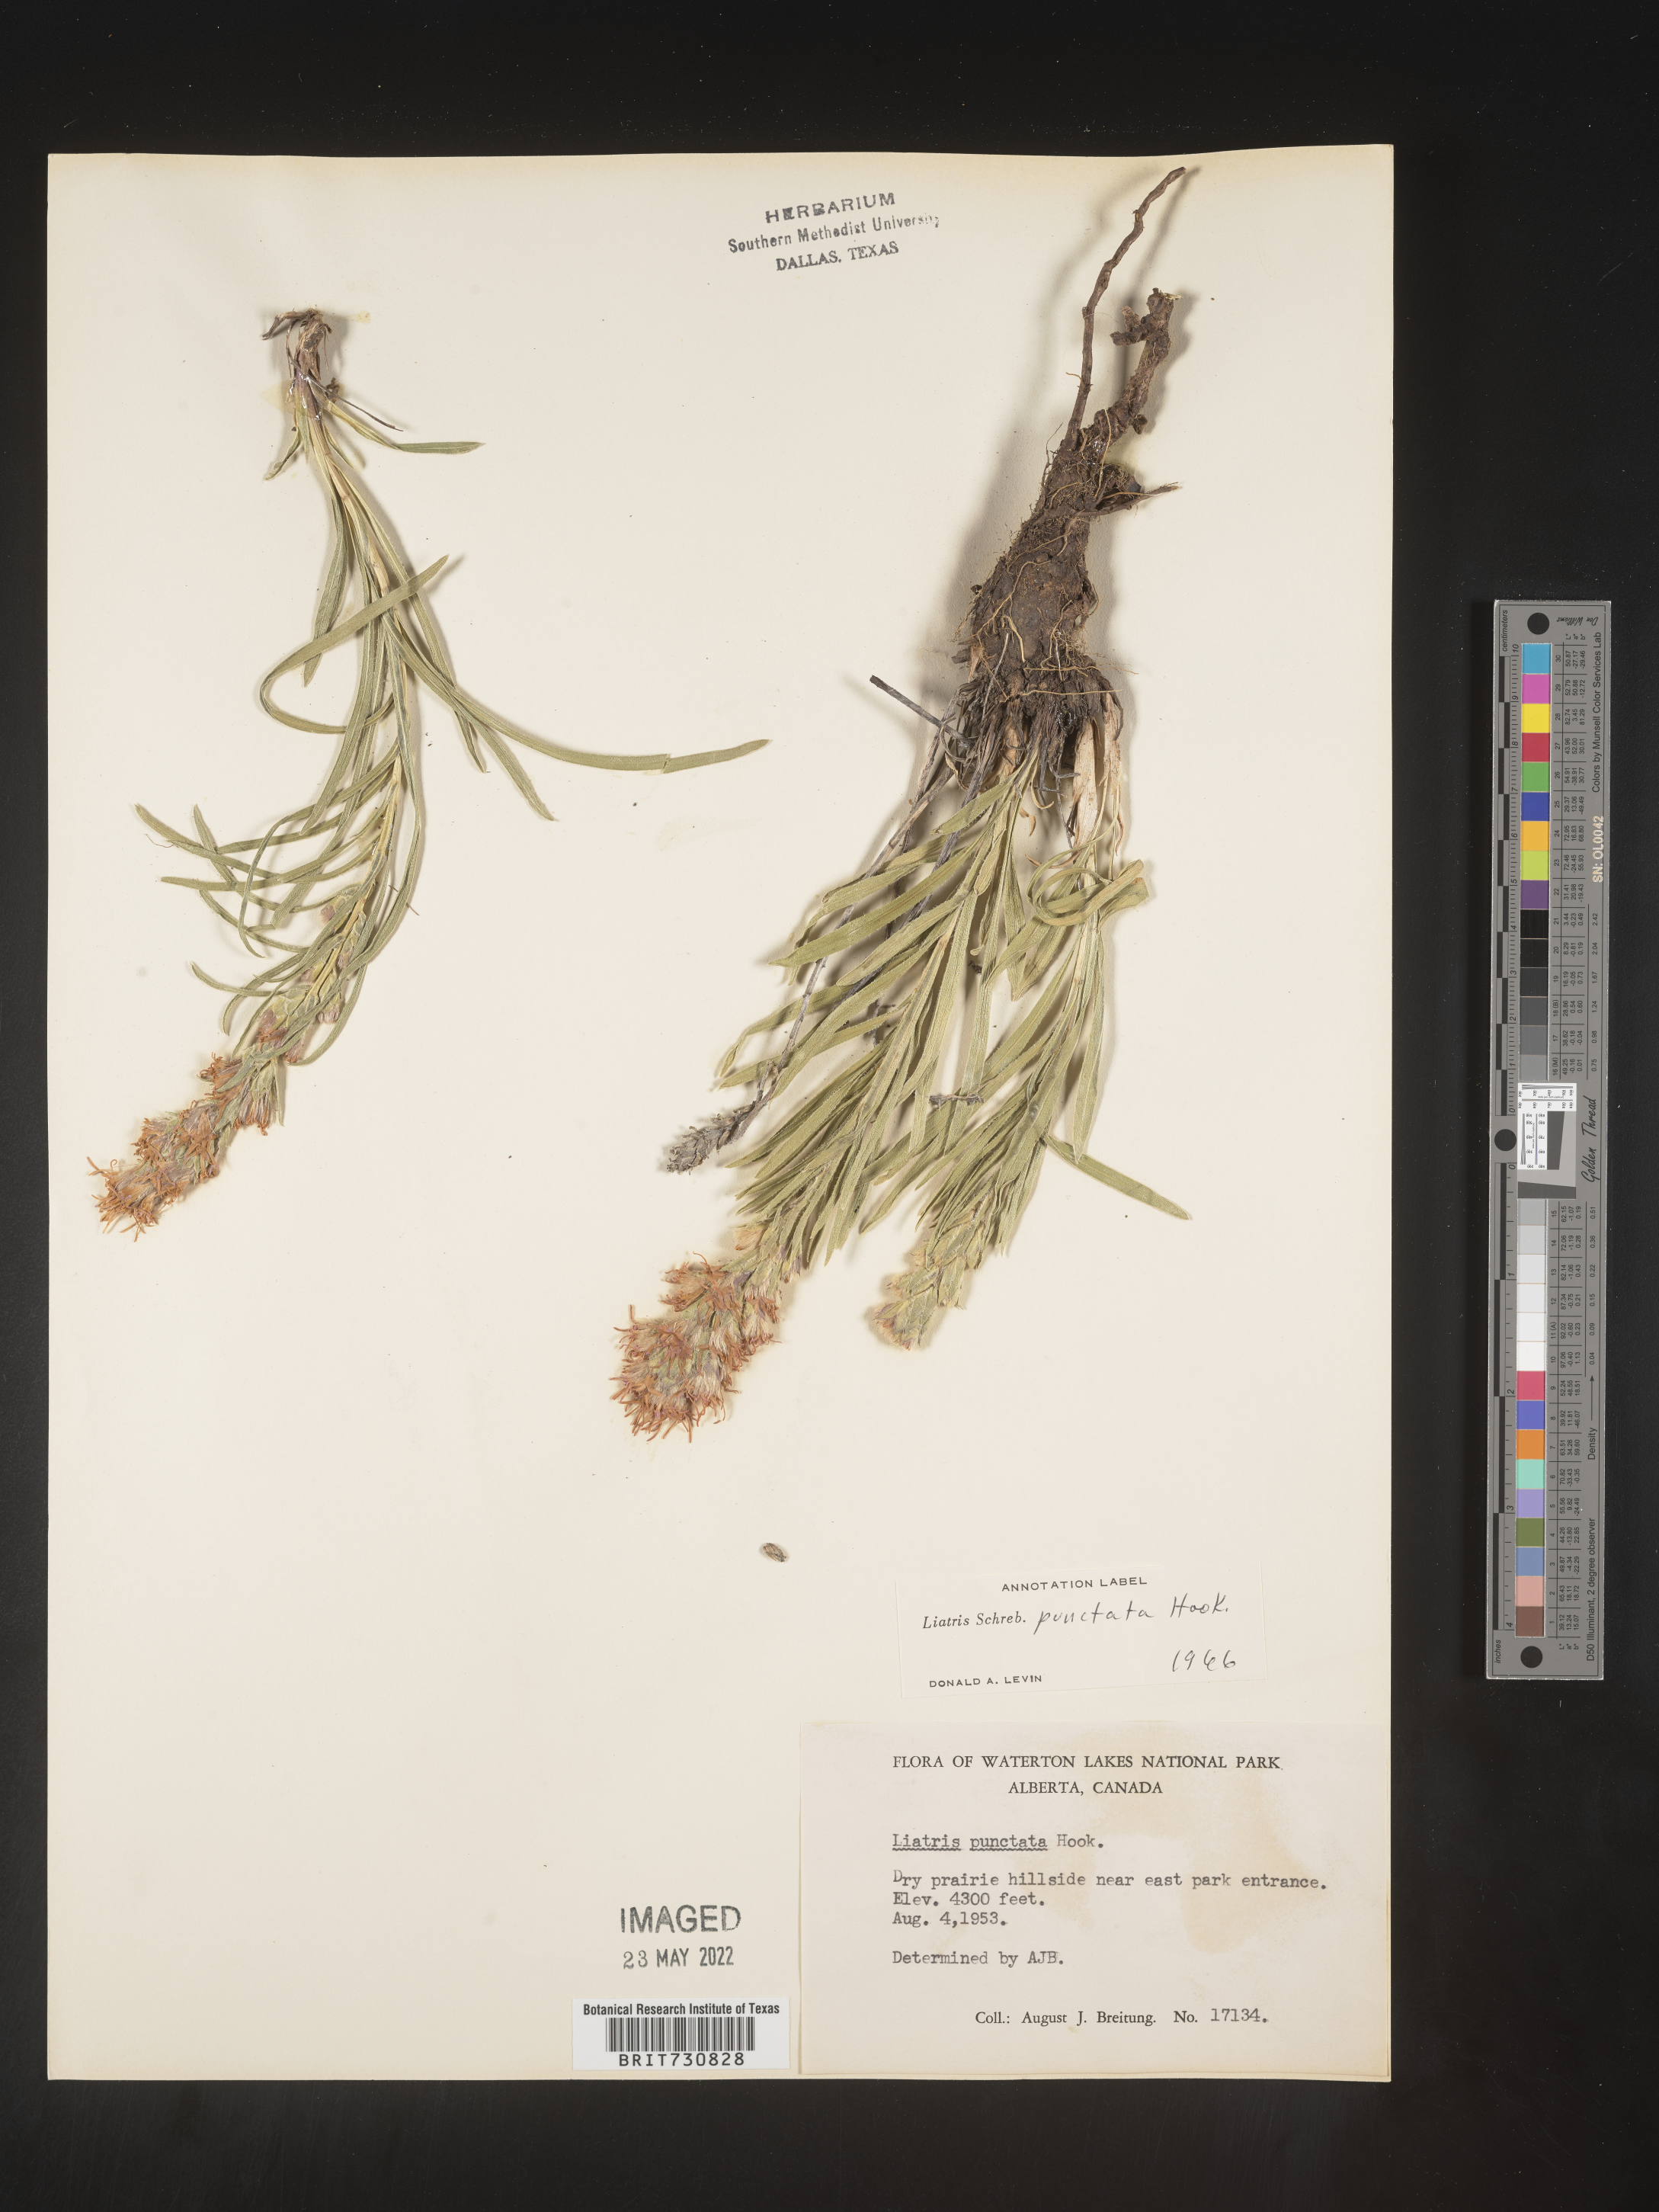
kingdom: Plantae
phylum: Tracheophyta
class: Magnoliopsida
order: Asterales
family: Asteraceae
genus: Liatris
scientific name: Liatris punctata
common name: Dotted gayfeather
